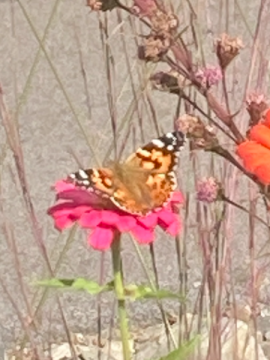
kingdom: Animalia
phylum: Arthropoda
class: Insecta
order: Lepidoptera
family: Nymphalidae
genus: Vanessa
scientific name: Vanessa cardui
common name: Painted Lady
